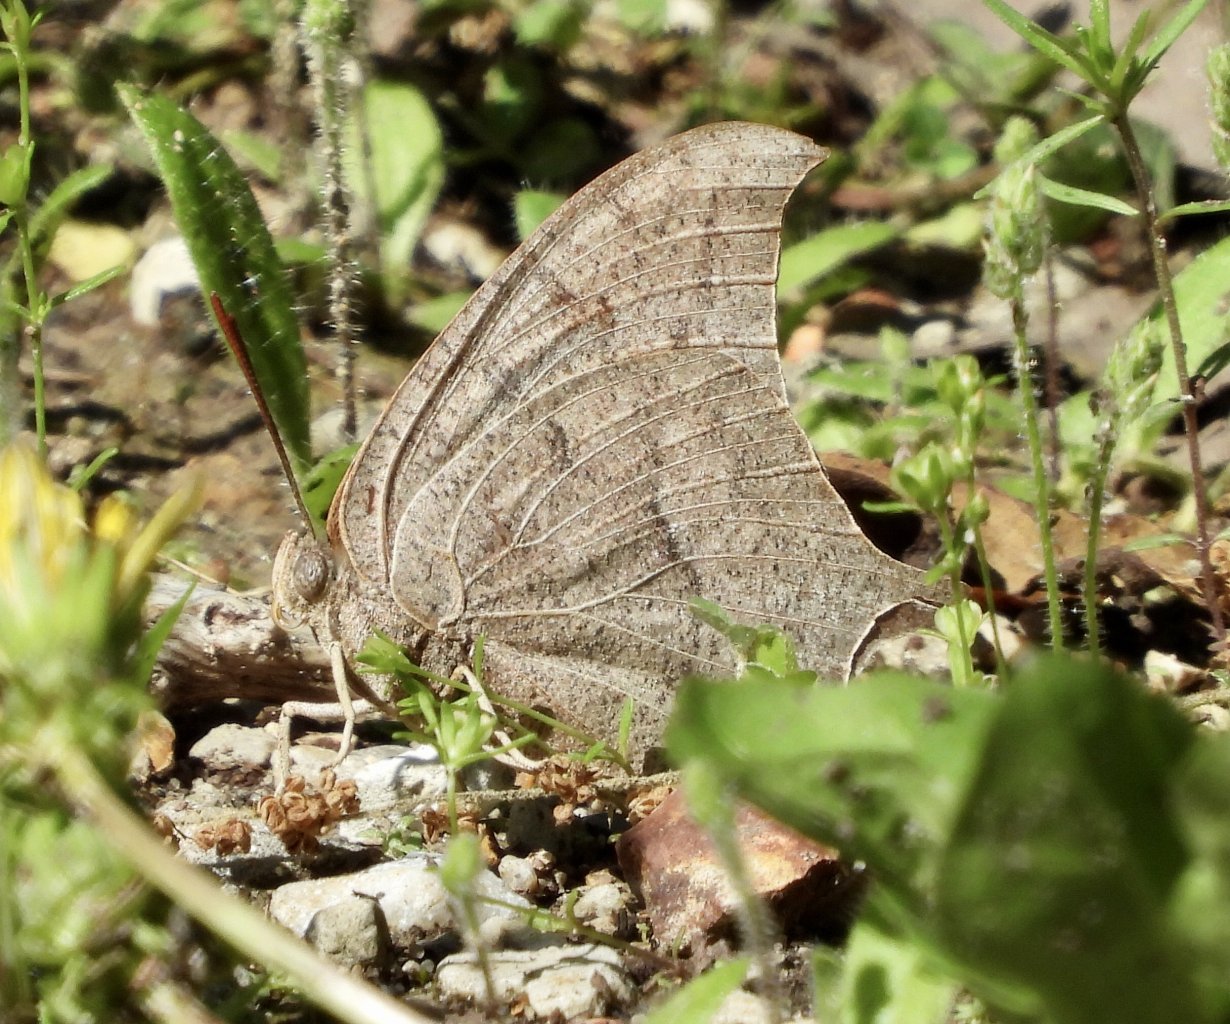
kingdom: Animalia
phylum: Arthropoda
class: Insecta
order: Lepidoptera
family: Nymphalidae
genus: Anaea
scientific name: Anaea andria
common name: Goatweed Leafwing
